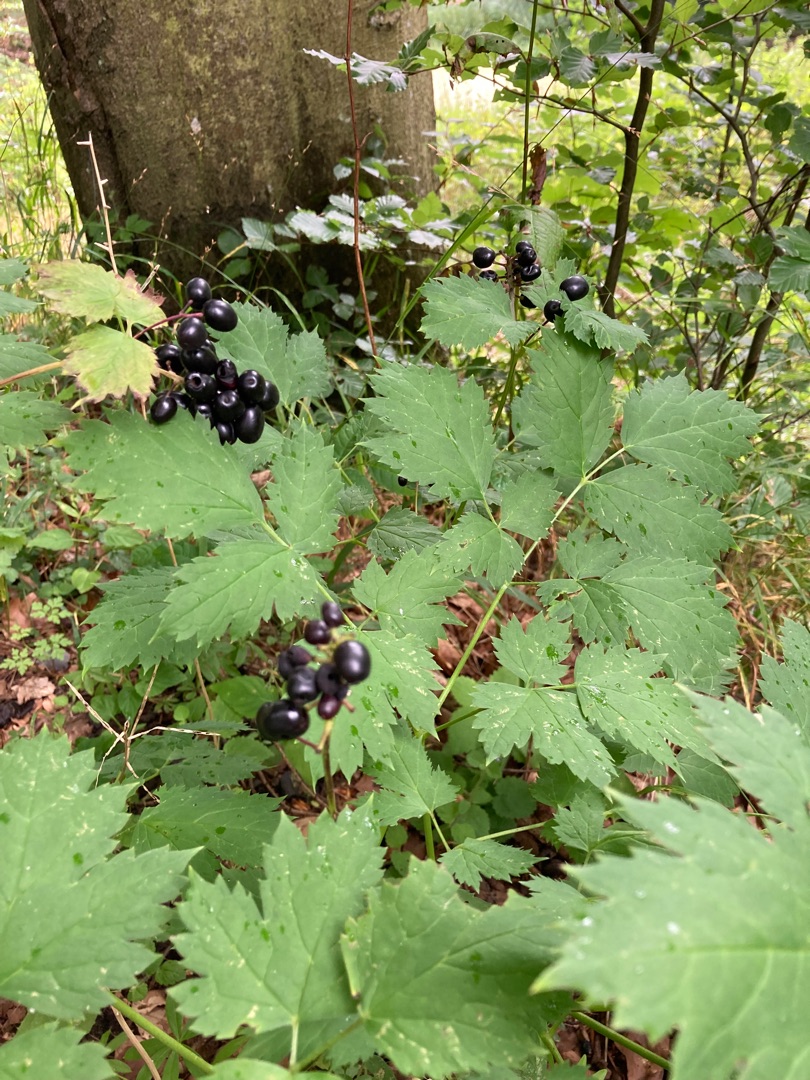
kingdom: Plantae
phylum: Tracheophyta
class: Magnoliopsida
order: Ranunculales
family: Ranunculaceae
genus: Actaea
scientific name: Actaea spicata
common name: Druemunke
